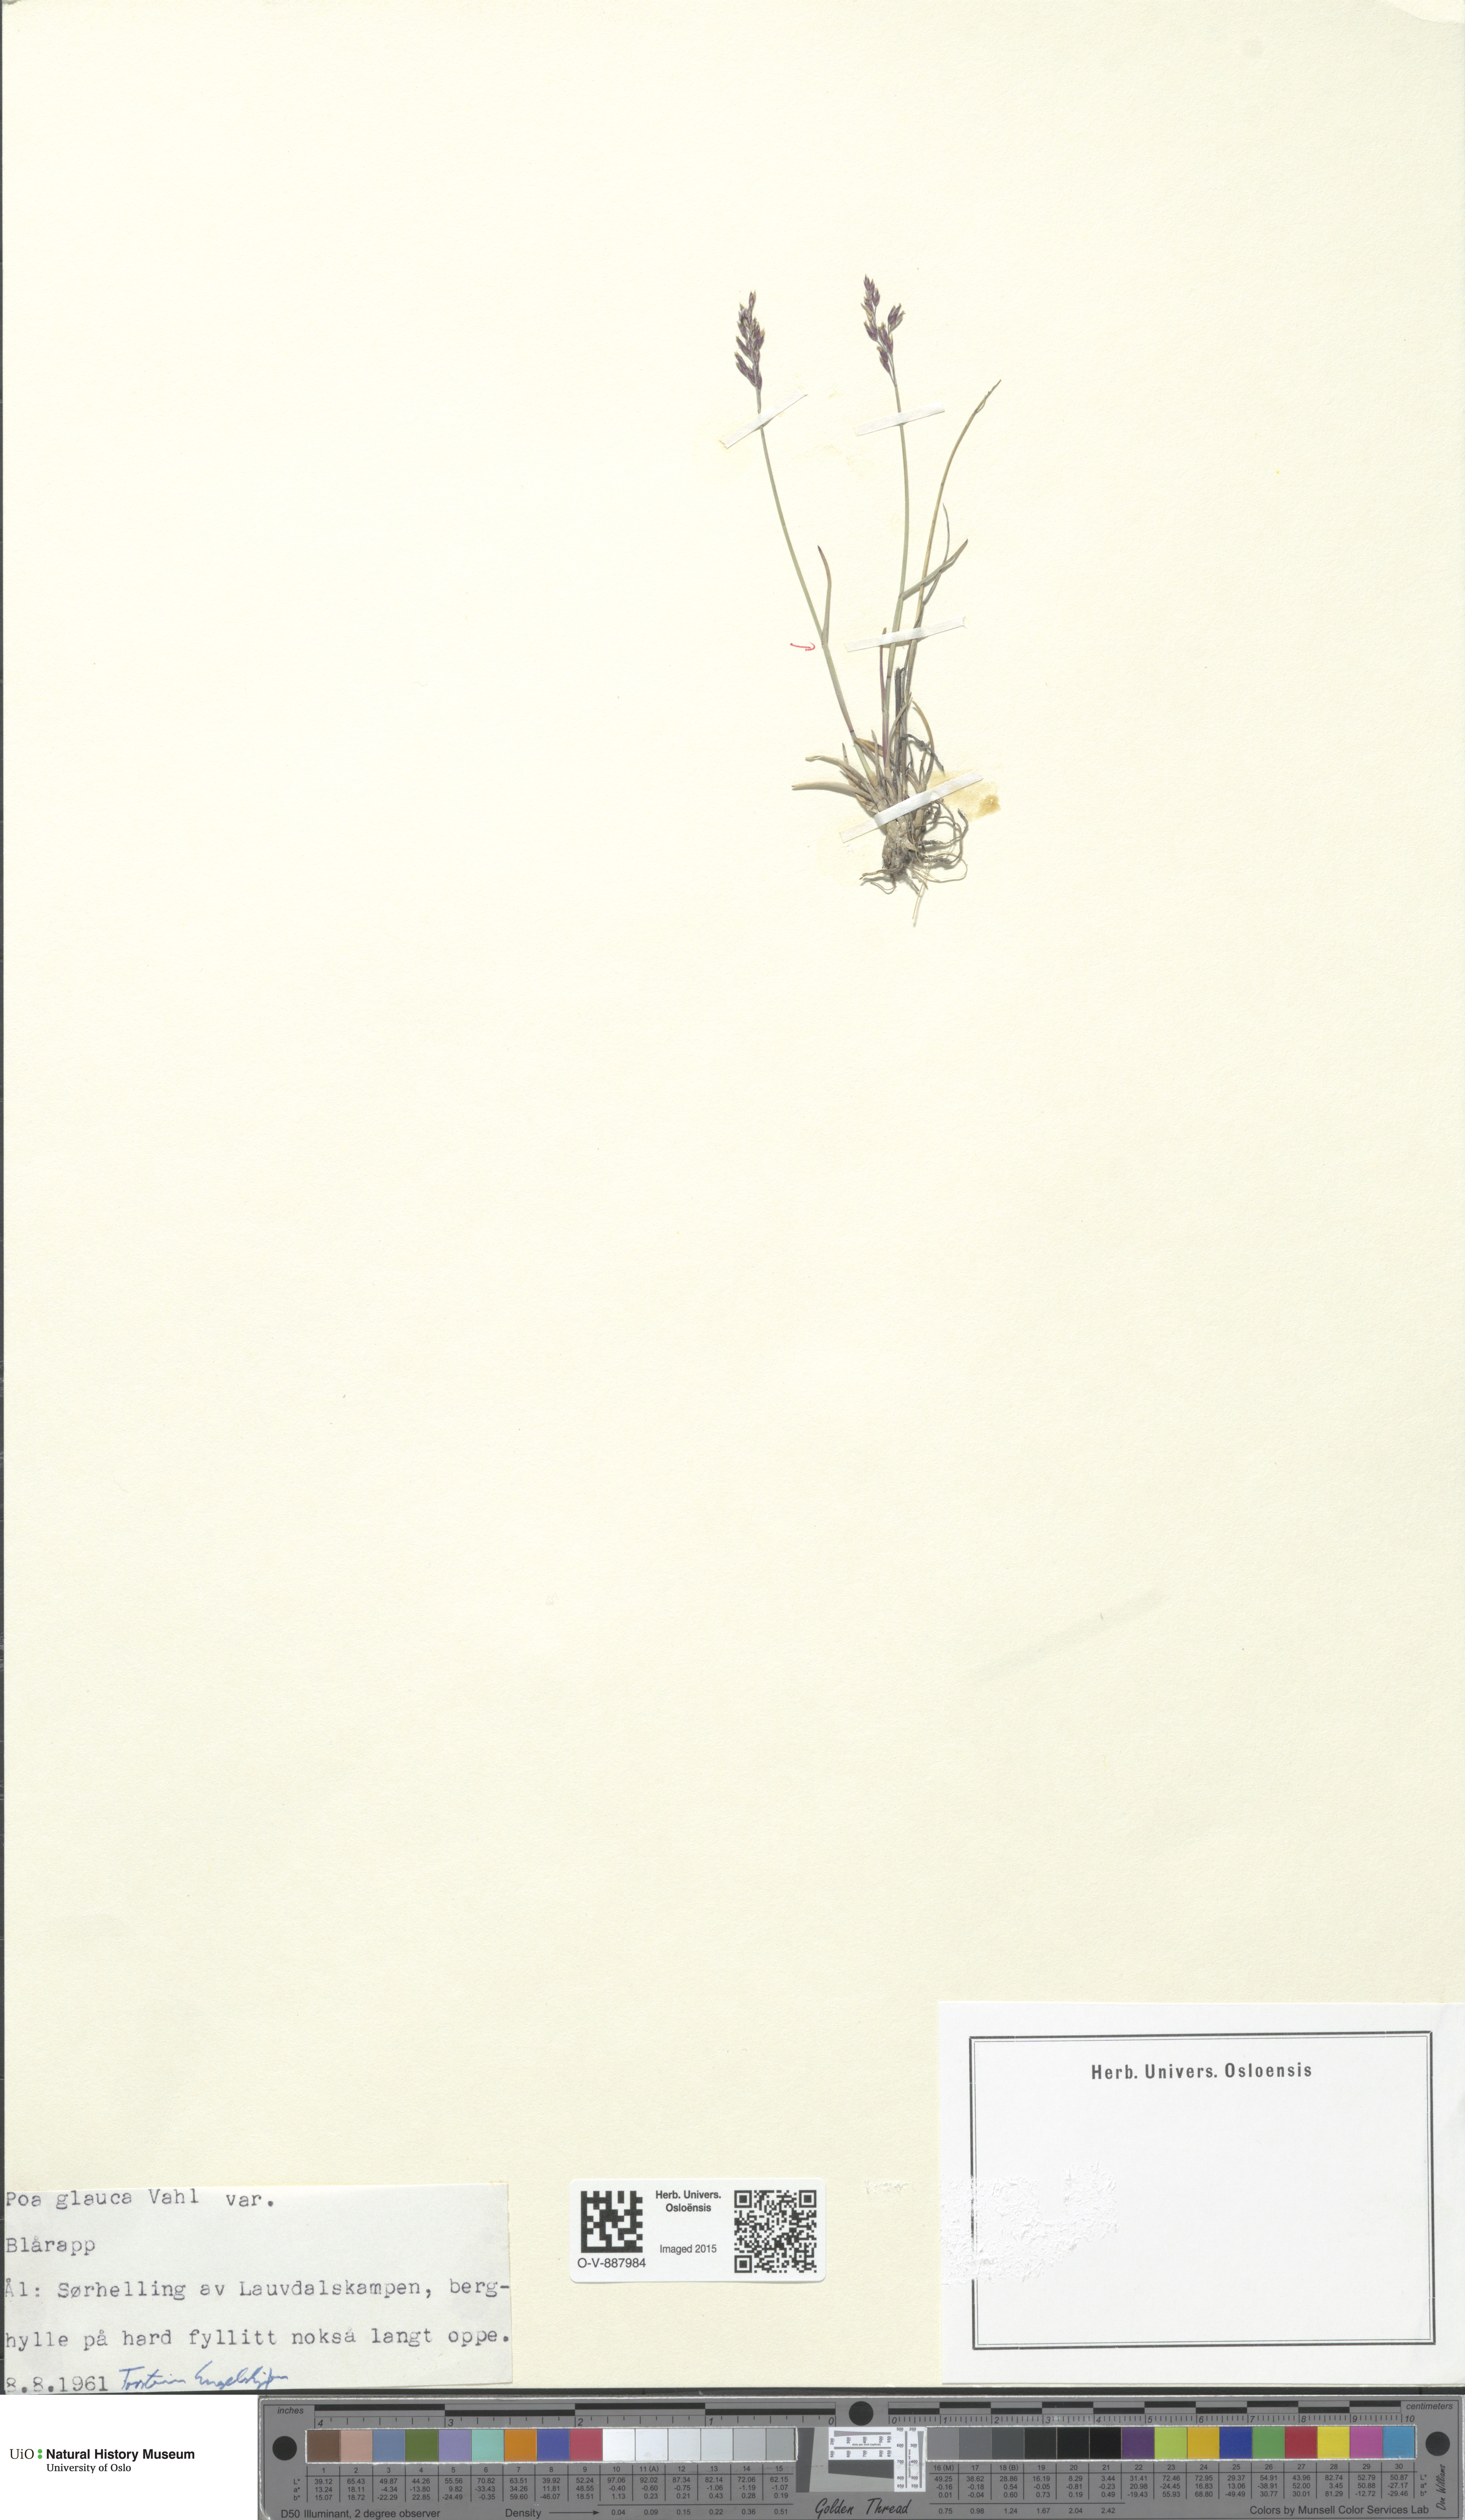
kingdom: Plantae
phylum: Tracheophyta
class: Liliopsida
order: Poales
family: Poaceae
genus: Poa
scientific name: Poa glauca
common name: Glaucous bluegrass
